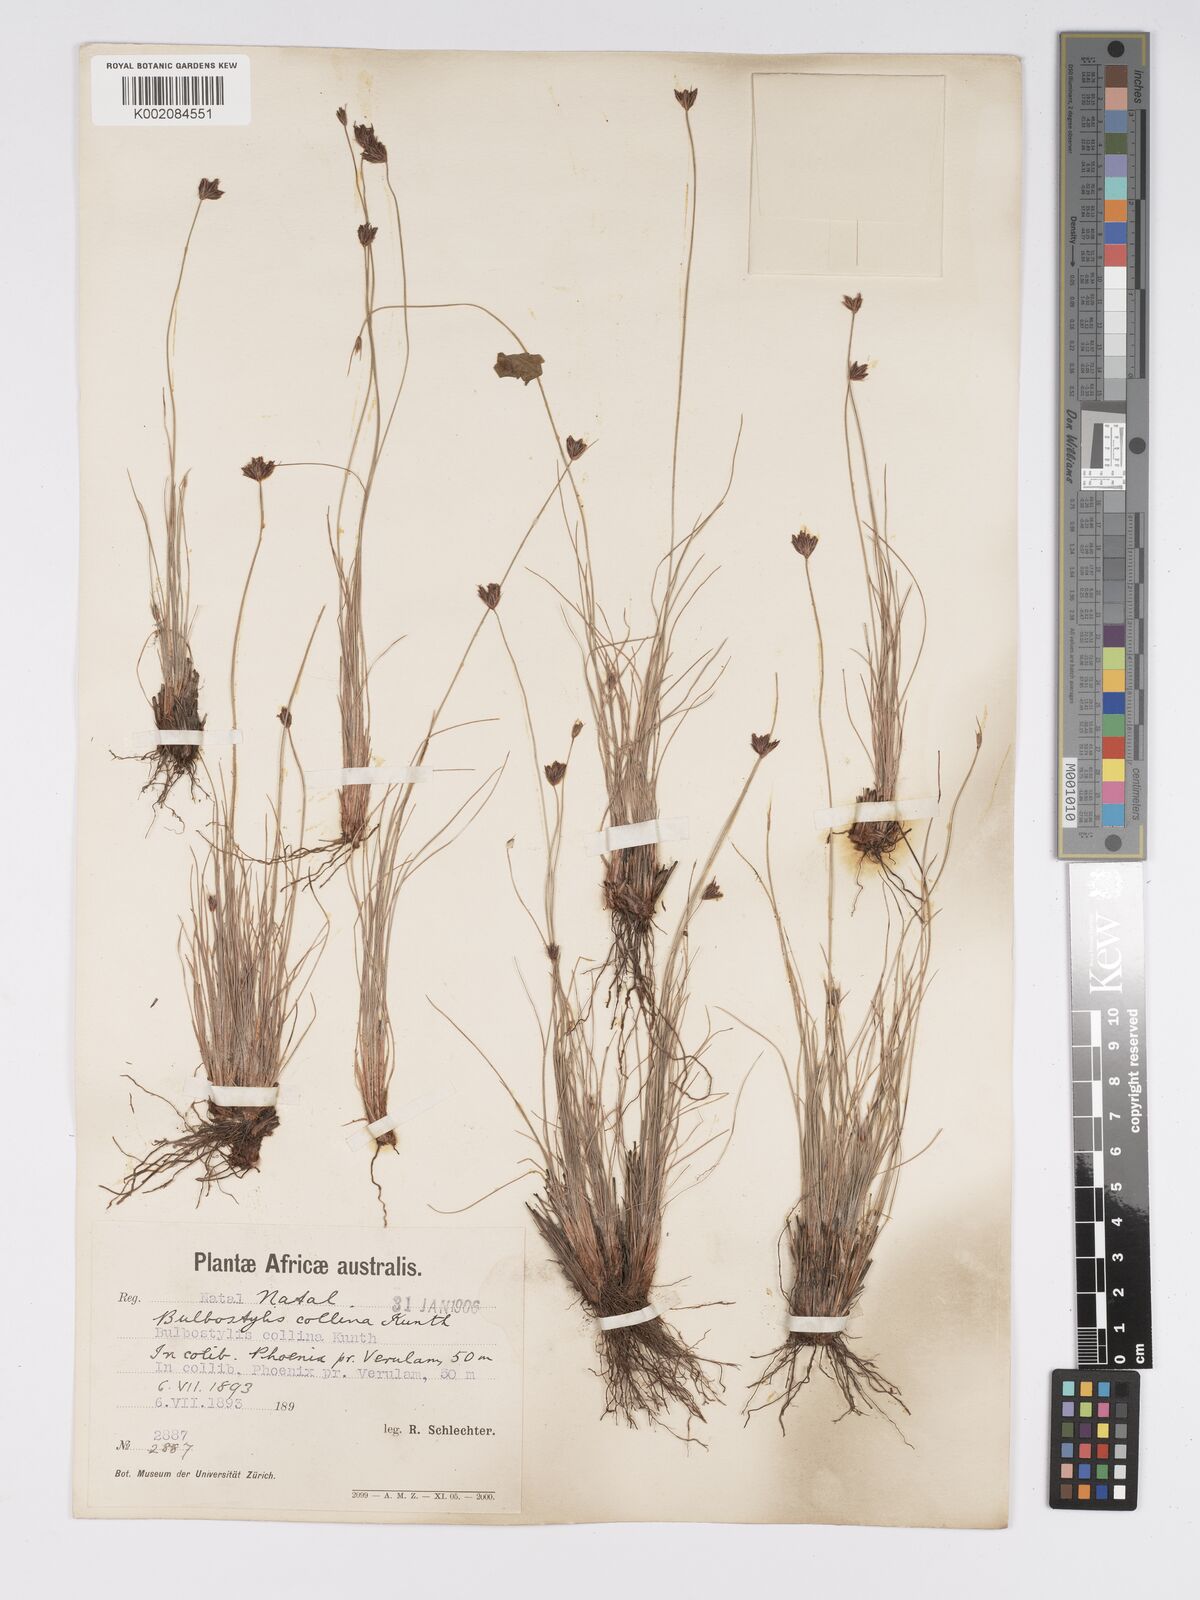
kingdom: Plantae
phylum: Tracheophyta
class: Liliopsida
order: Poales
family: Cyperaceae
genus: Bulbostylis
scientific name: Bulbostylis contexta
